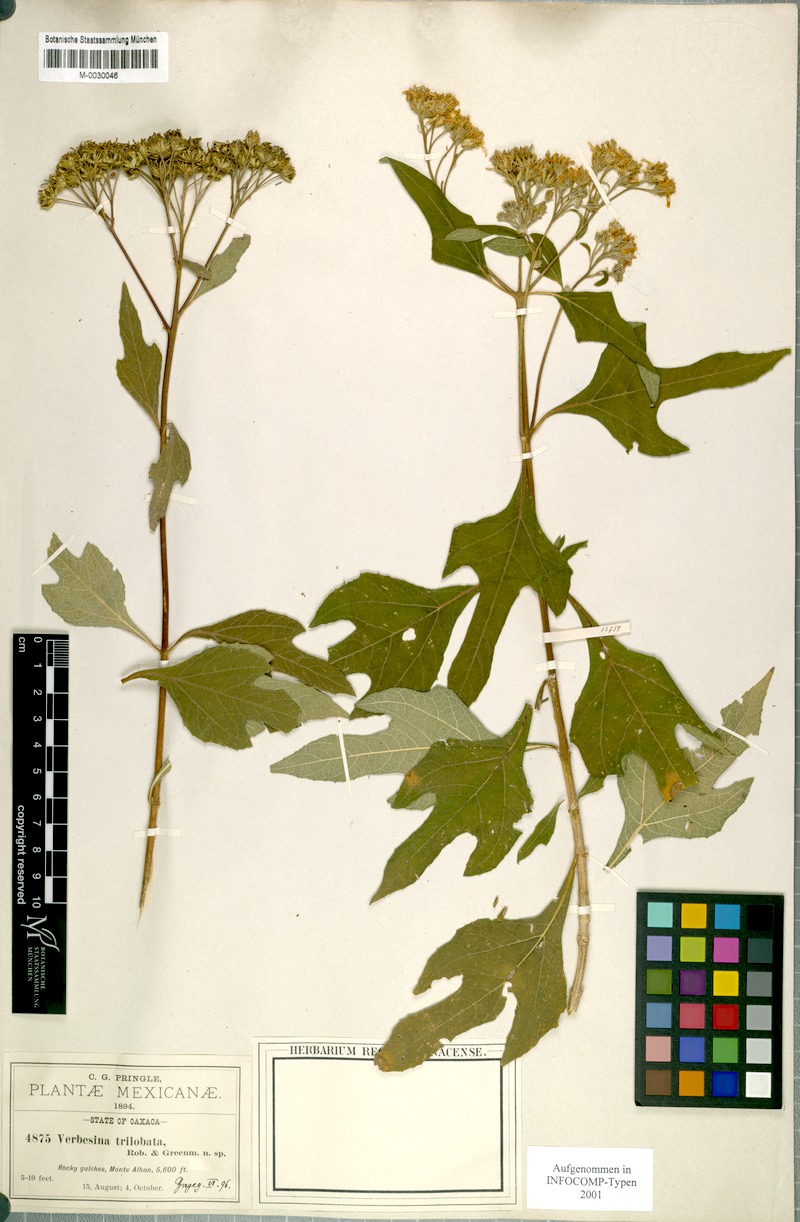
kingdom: Plantae
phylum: Tracheophyta
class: Magnoliopsida
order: Asterales
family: Asteraceae
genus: Verbesina
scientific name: Verbesina trilobata
